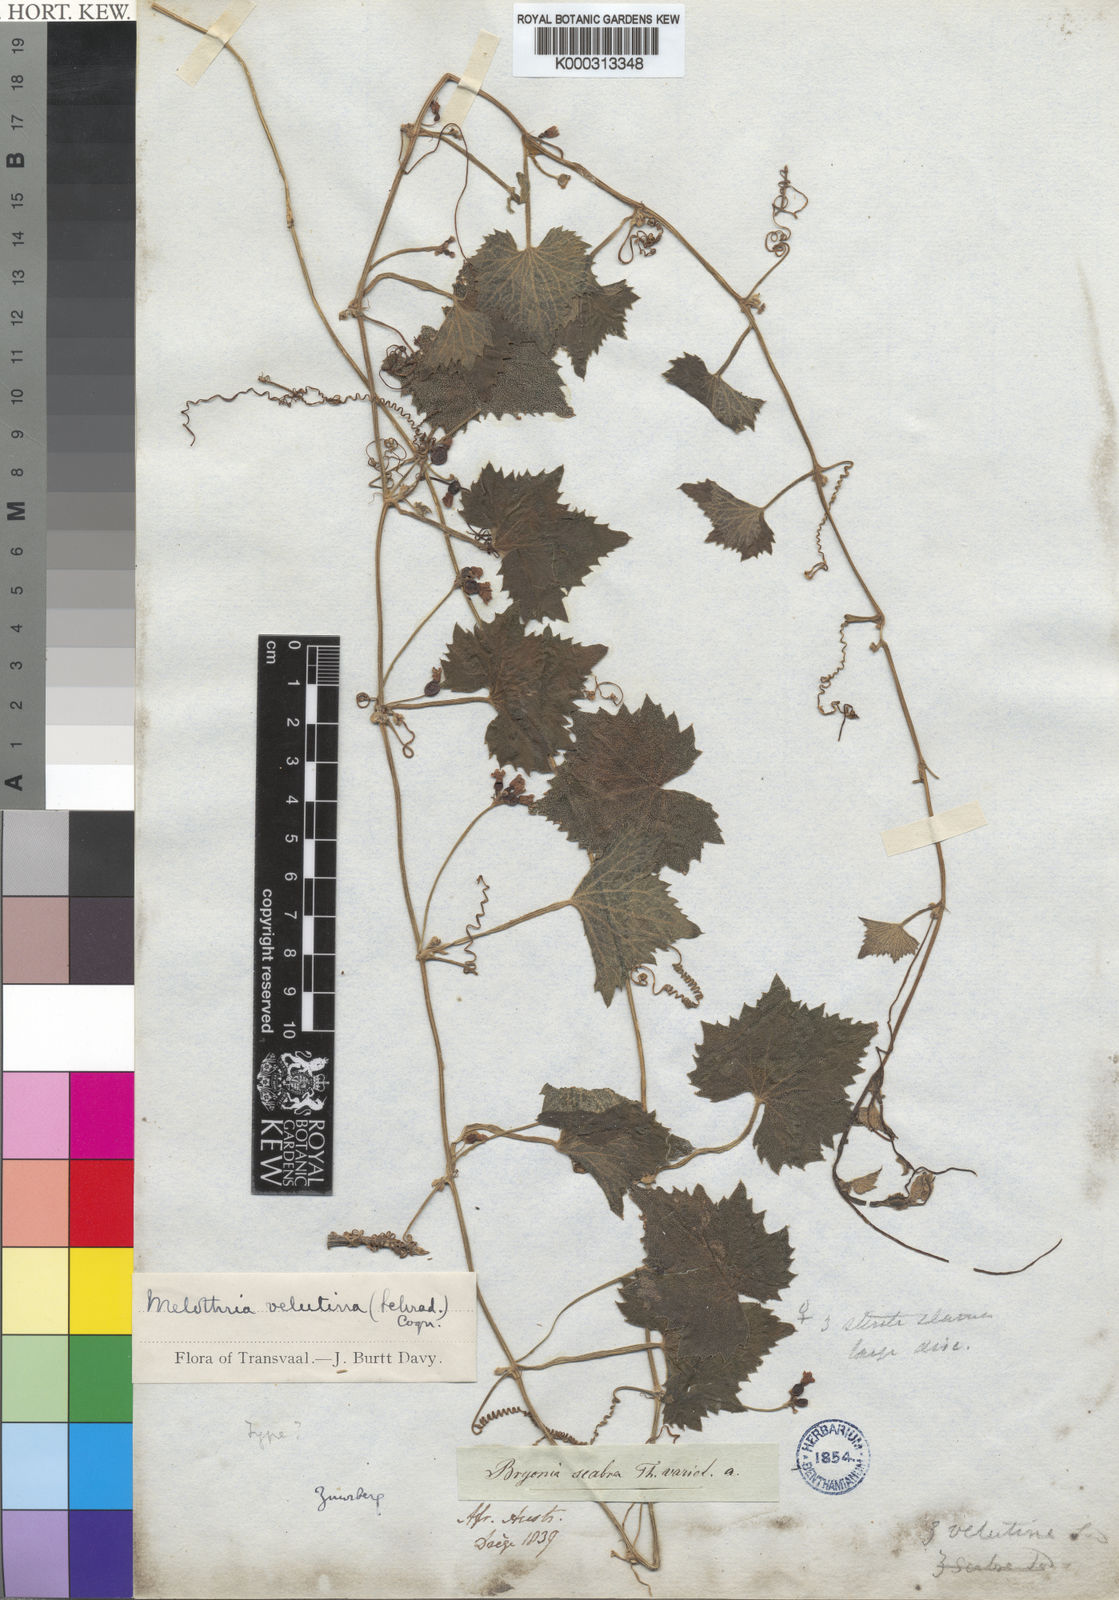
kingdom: Plantae
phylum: Tracheophyta
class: Magnoliopsida
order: Cucurbitales
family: Cucurbitaceae
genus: Zehneria
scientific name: Zehneria scabra
